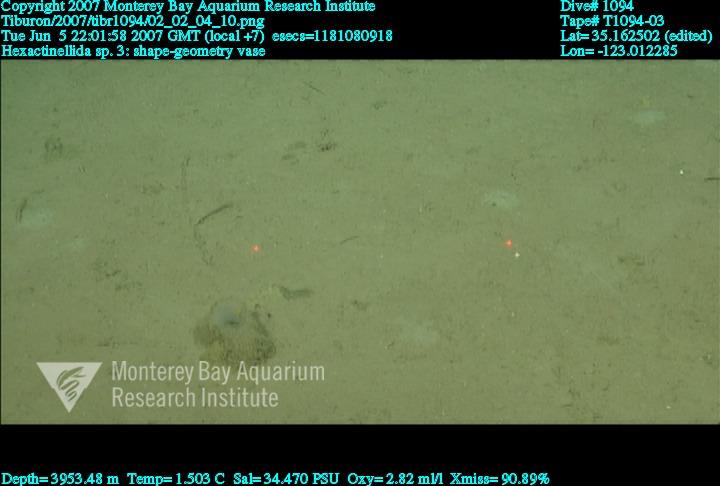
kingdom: Animalia
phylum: Porifera
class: Hexactinellida
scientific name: Hexactinellida
